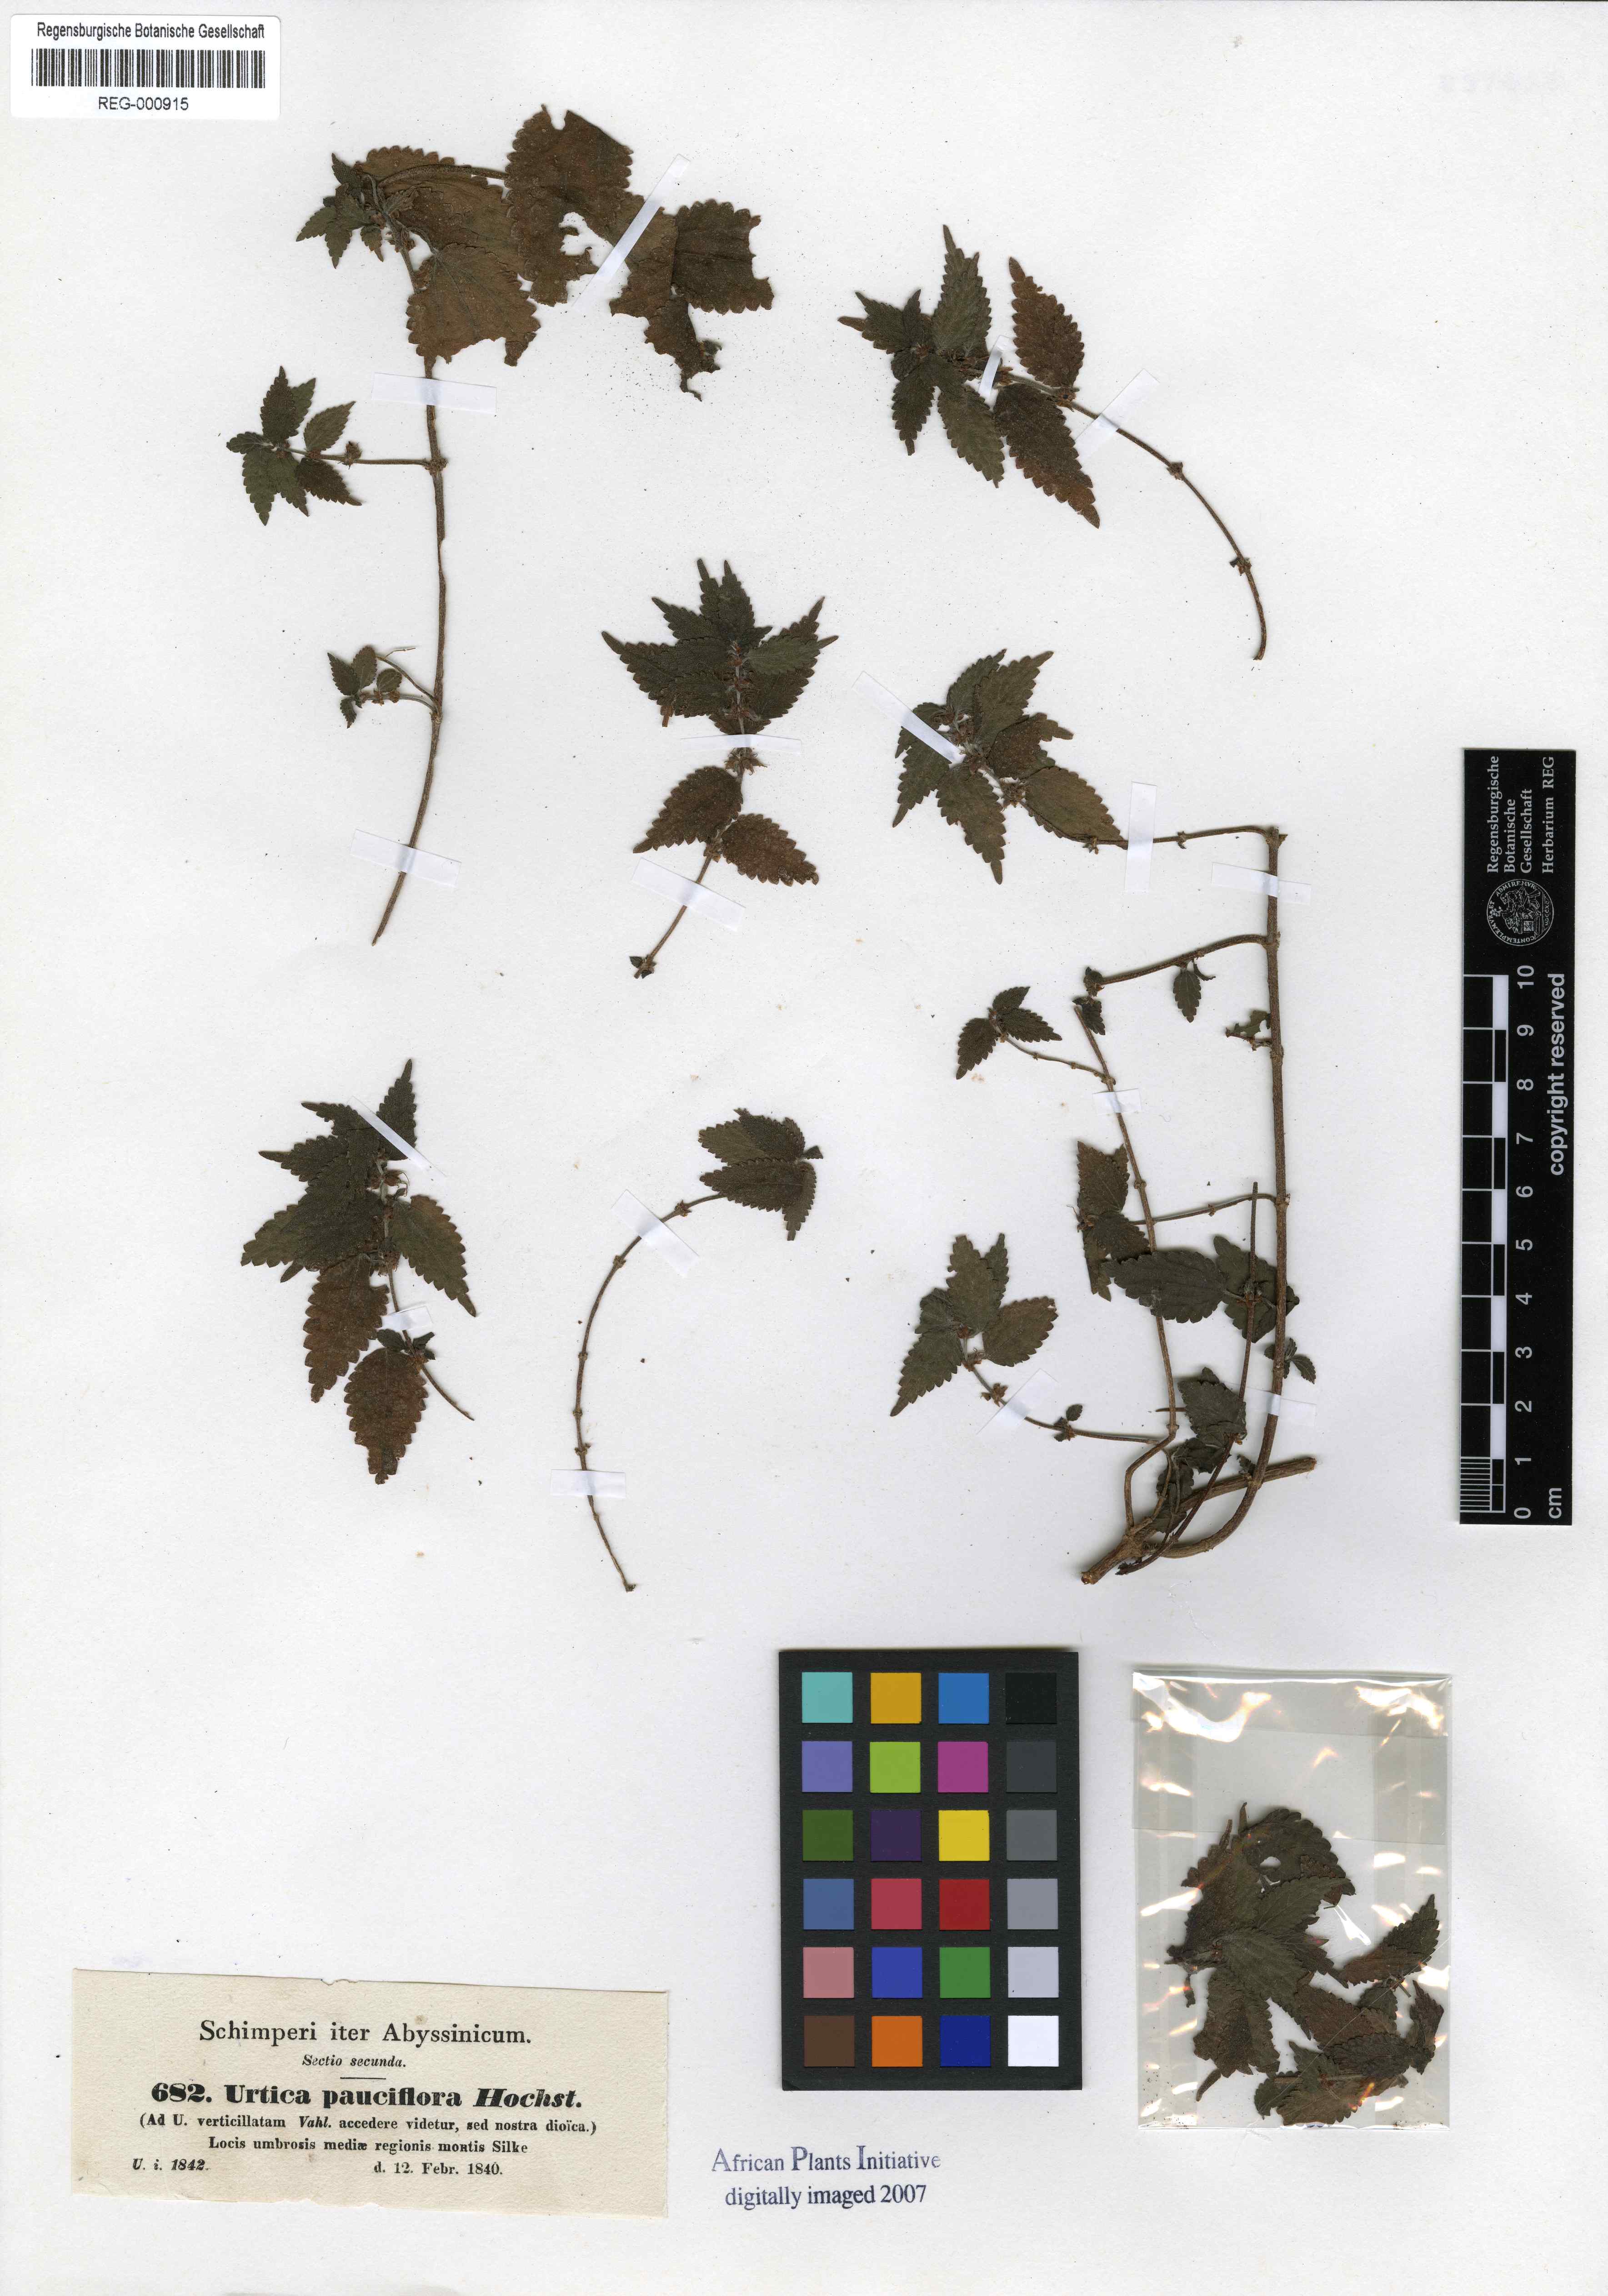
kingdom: Plantae
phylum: Tracheophyta
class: Magnoliopsida
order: Rosales
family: Urticaceae
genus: Droguetia
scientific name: Droguetia iners
